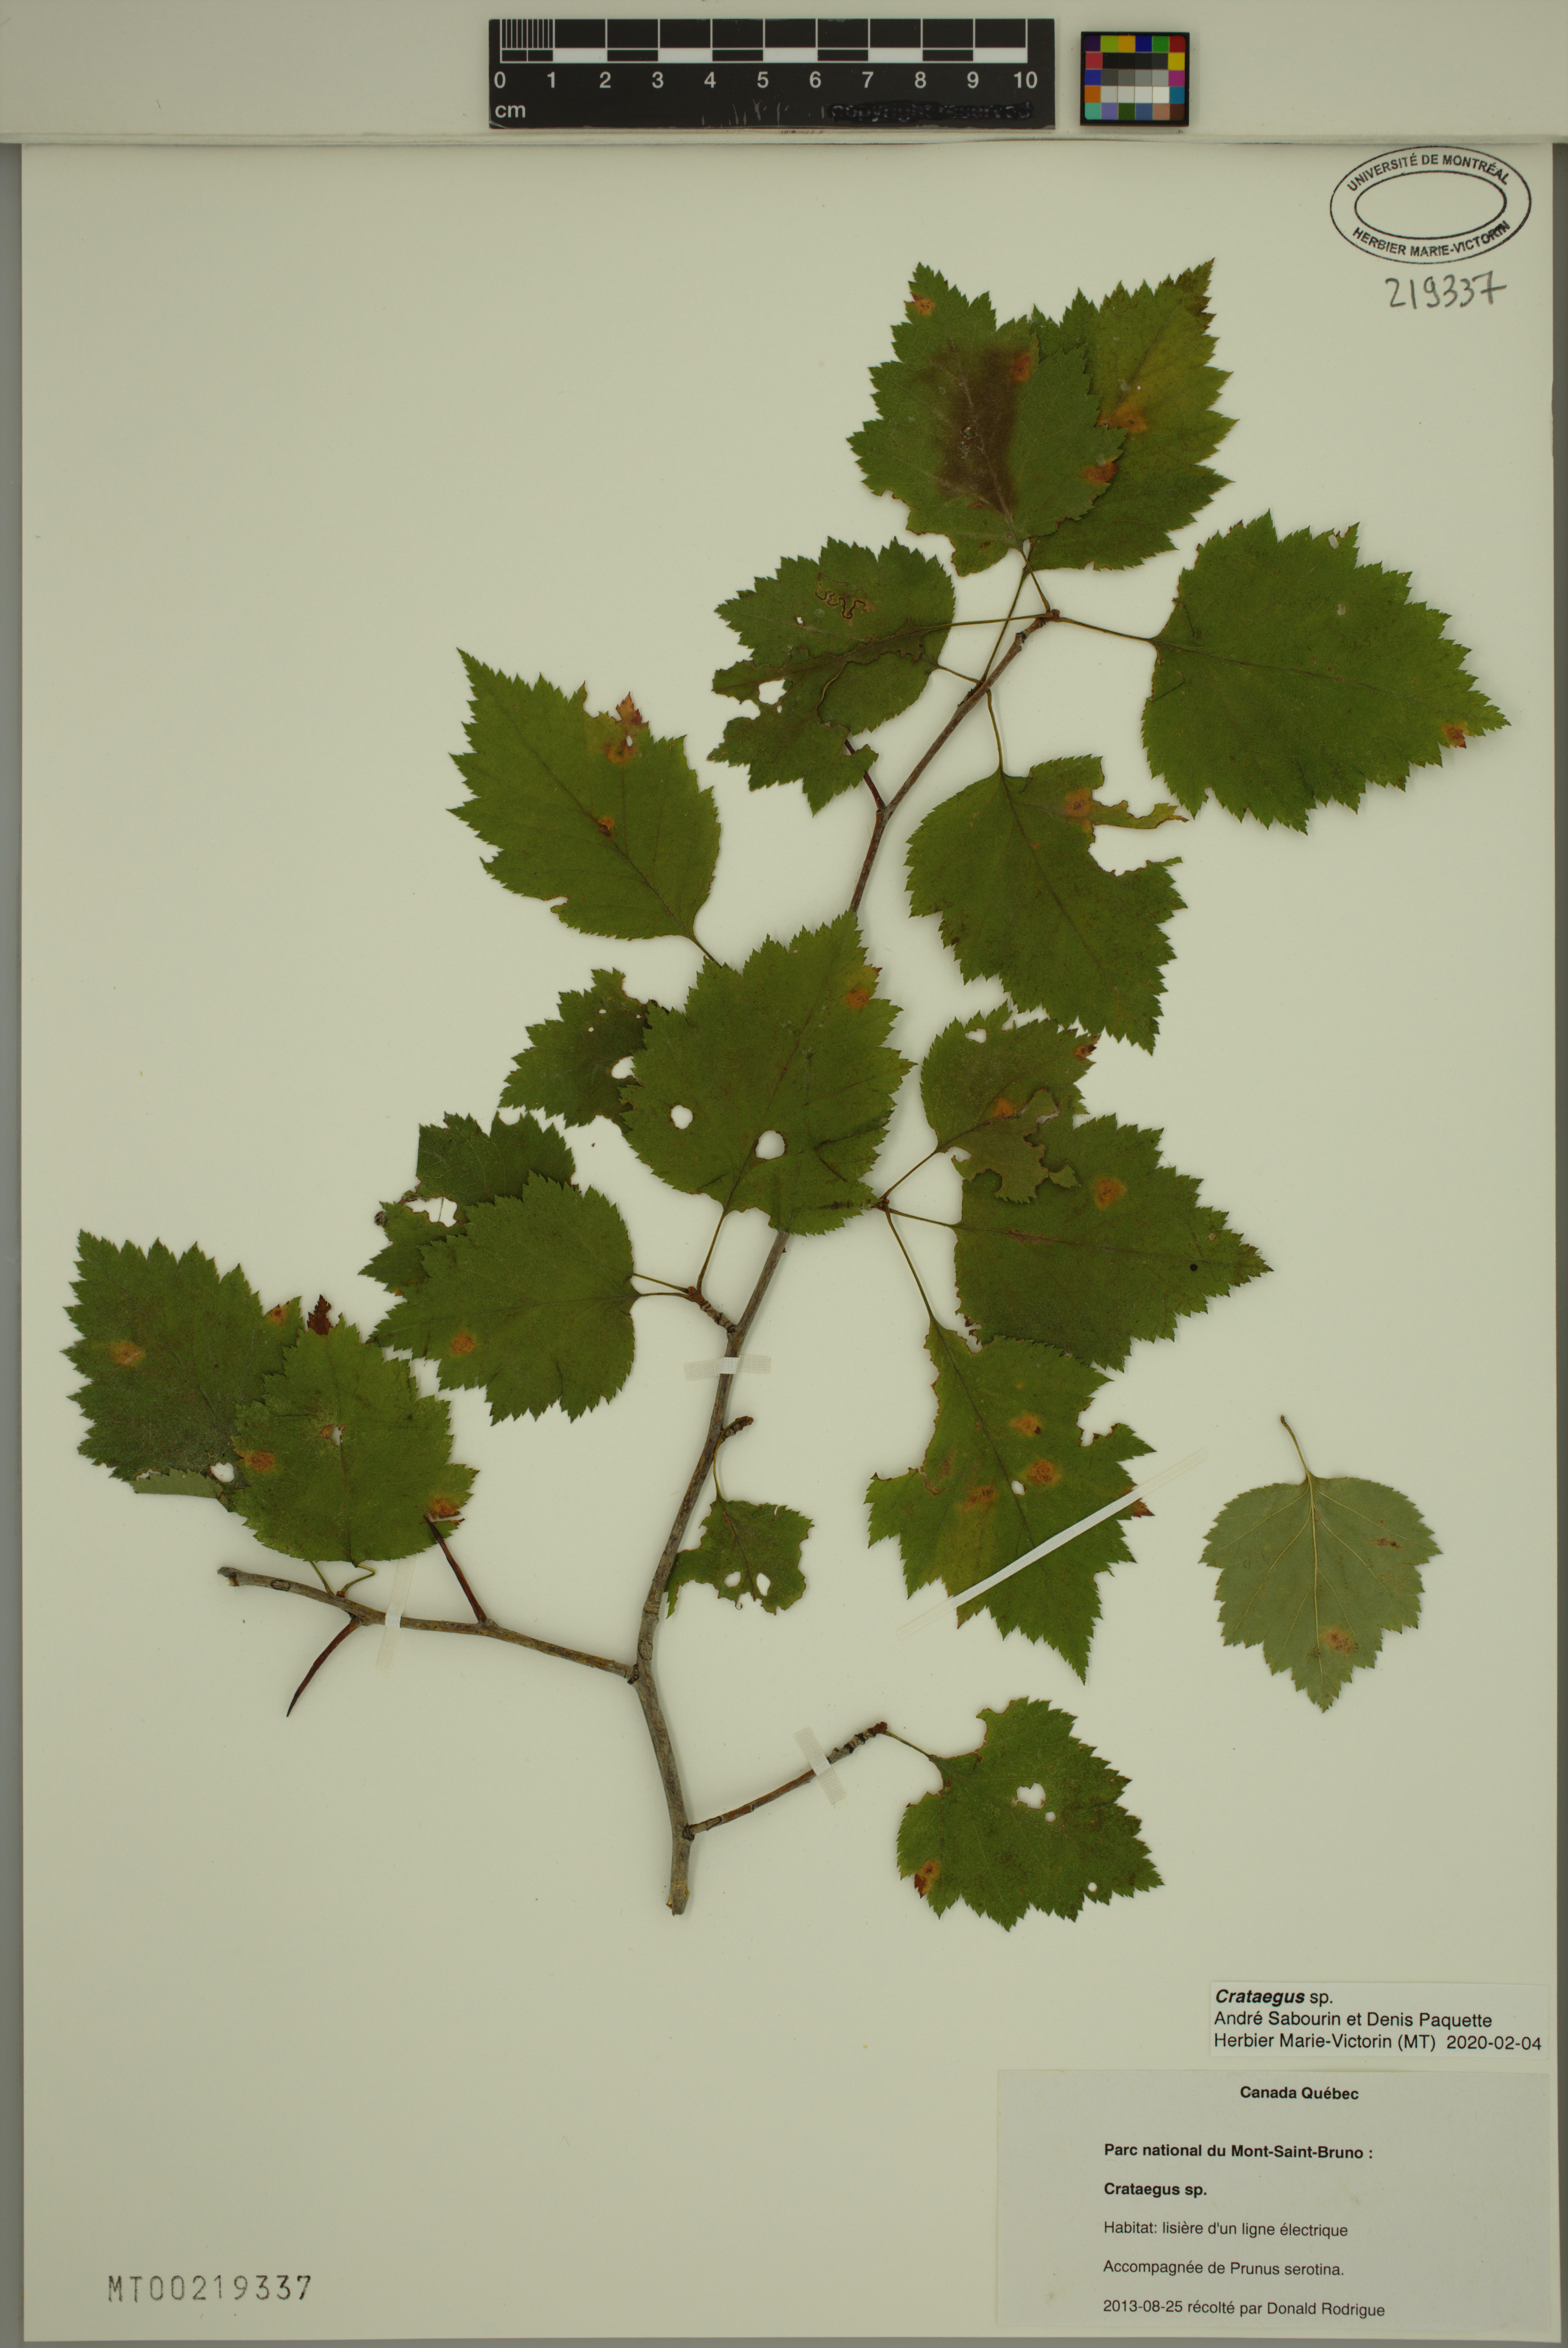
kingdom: Plantae
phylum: Tracheophyta
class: Magnoliopsida
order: Rosales
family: Rosaceae
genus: Crataegus
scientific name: Crataegus
